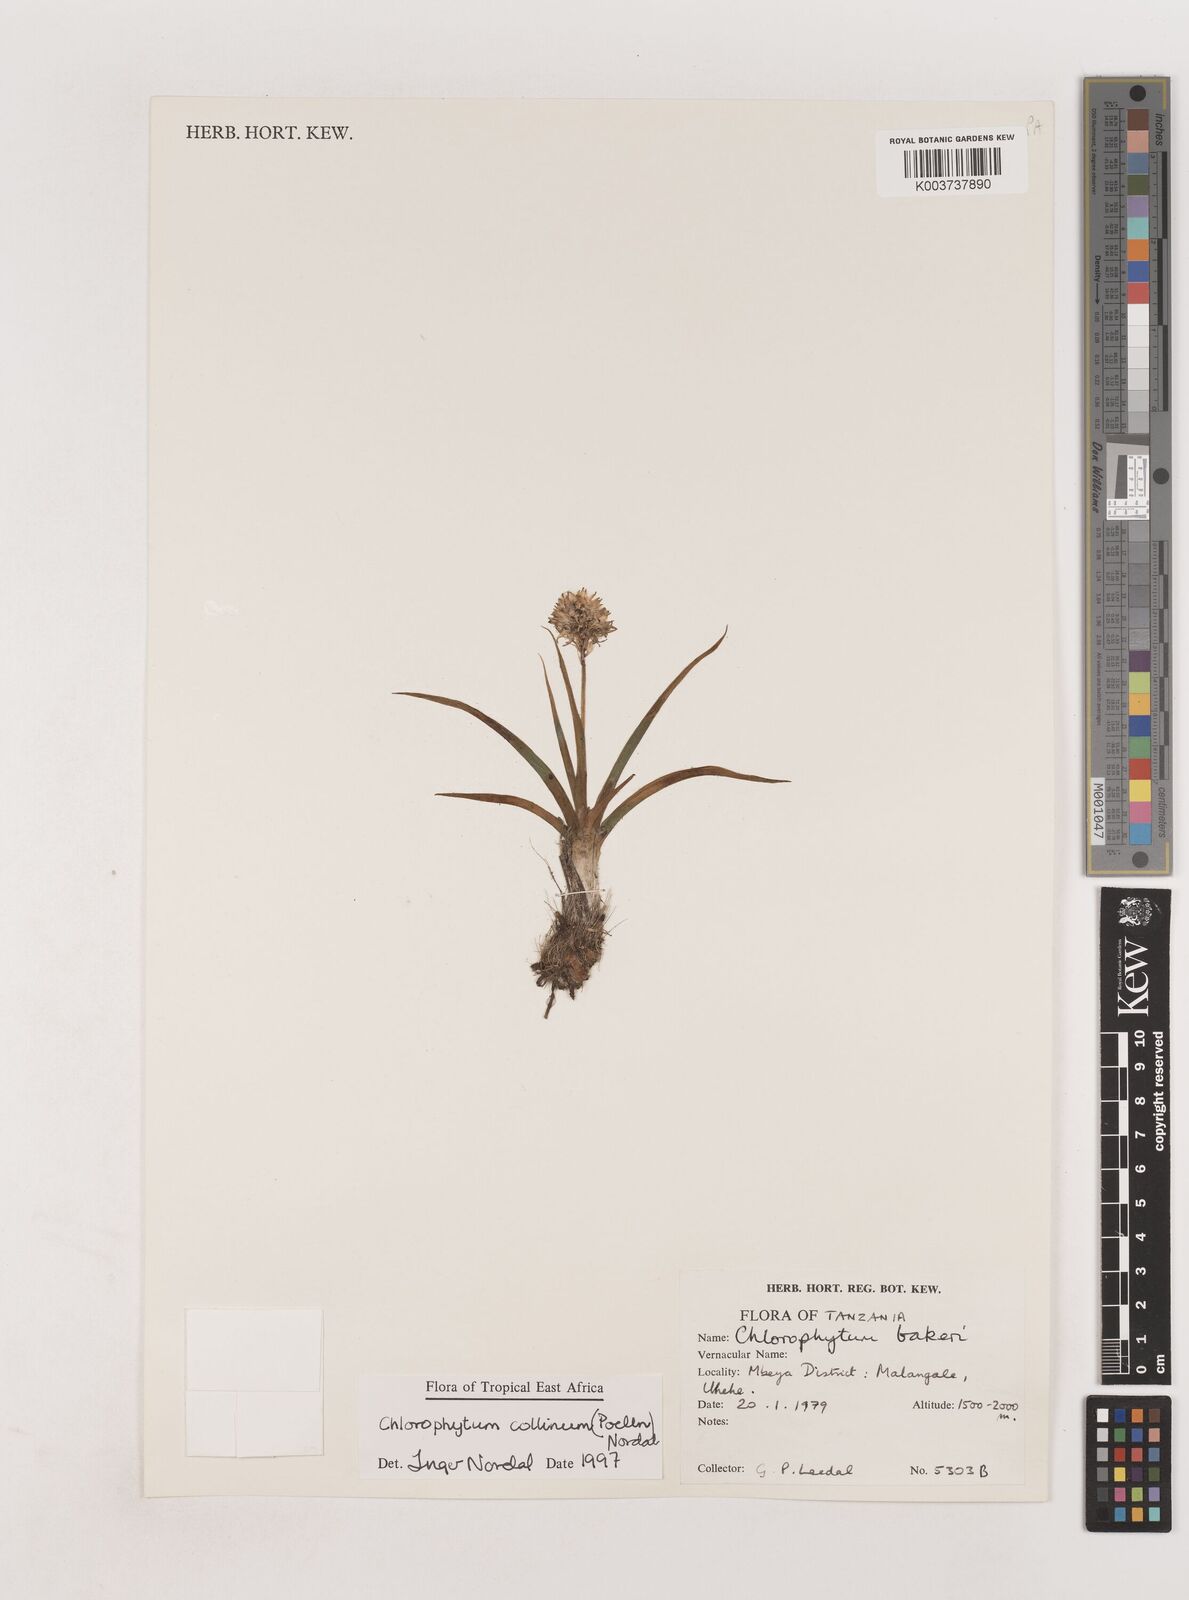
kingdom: Plantae
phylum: Tracheophyta
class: Liliopsida
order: Asparagales
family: Asparagaceae
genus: Chlorophytum
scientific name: Chlorophytum collinum
